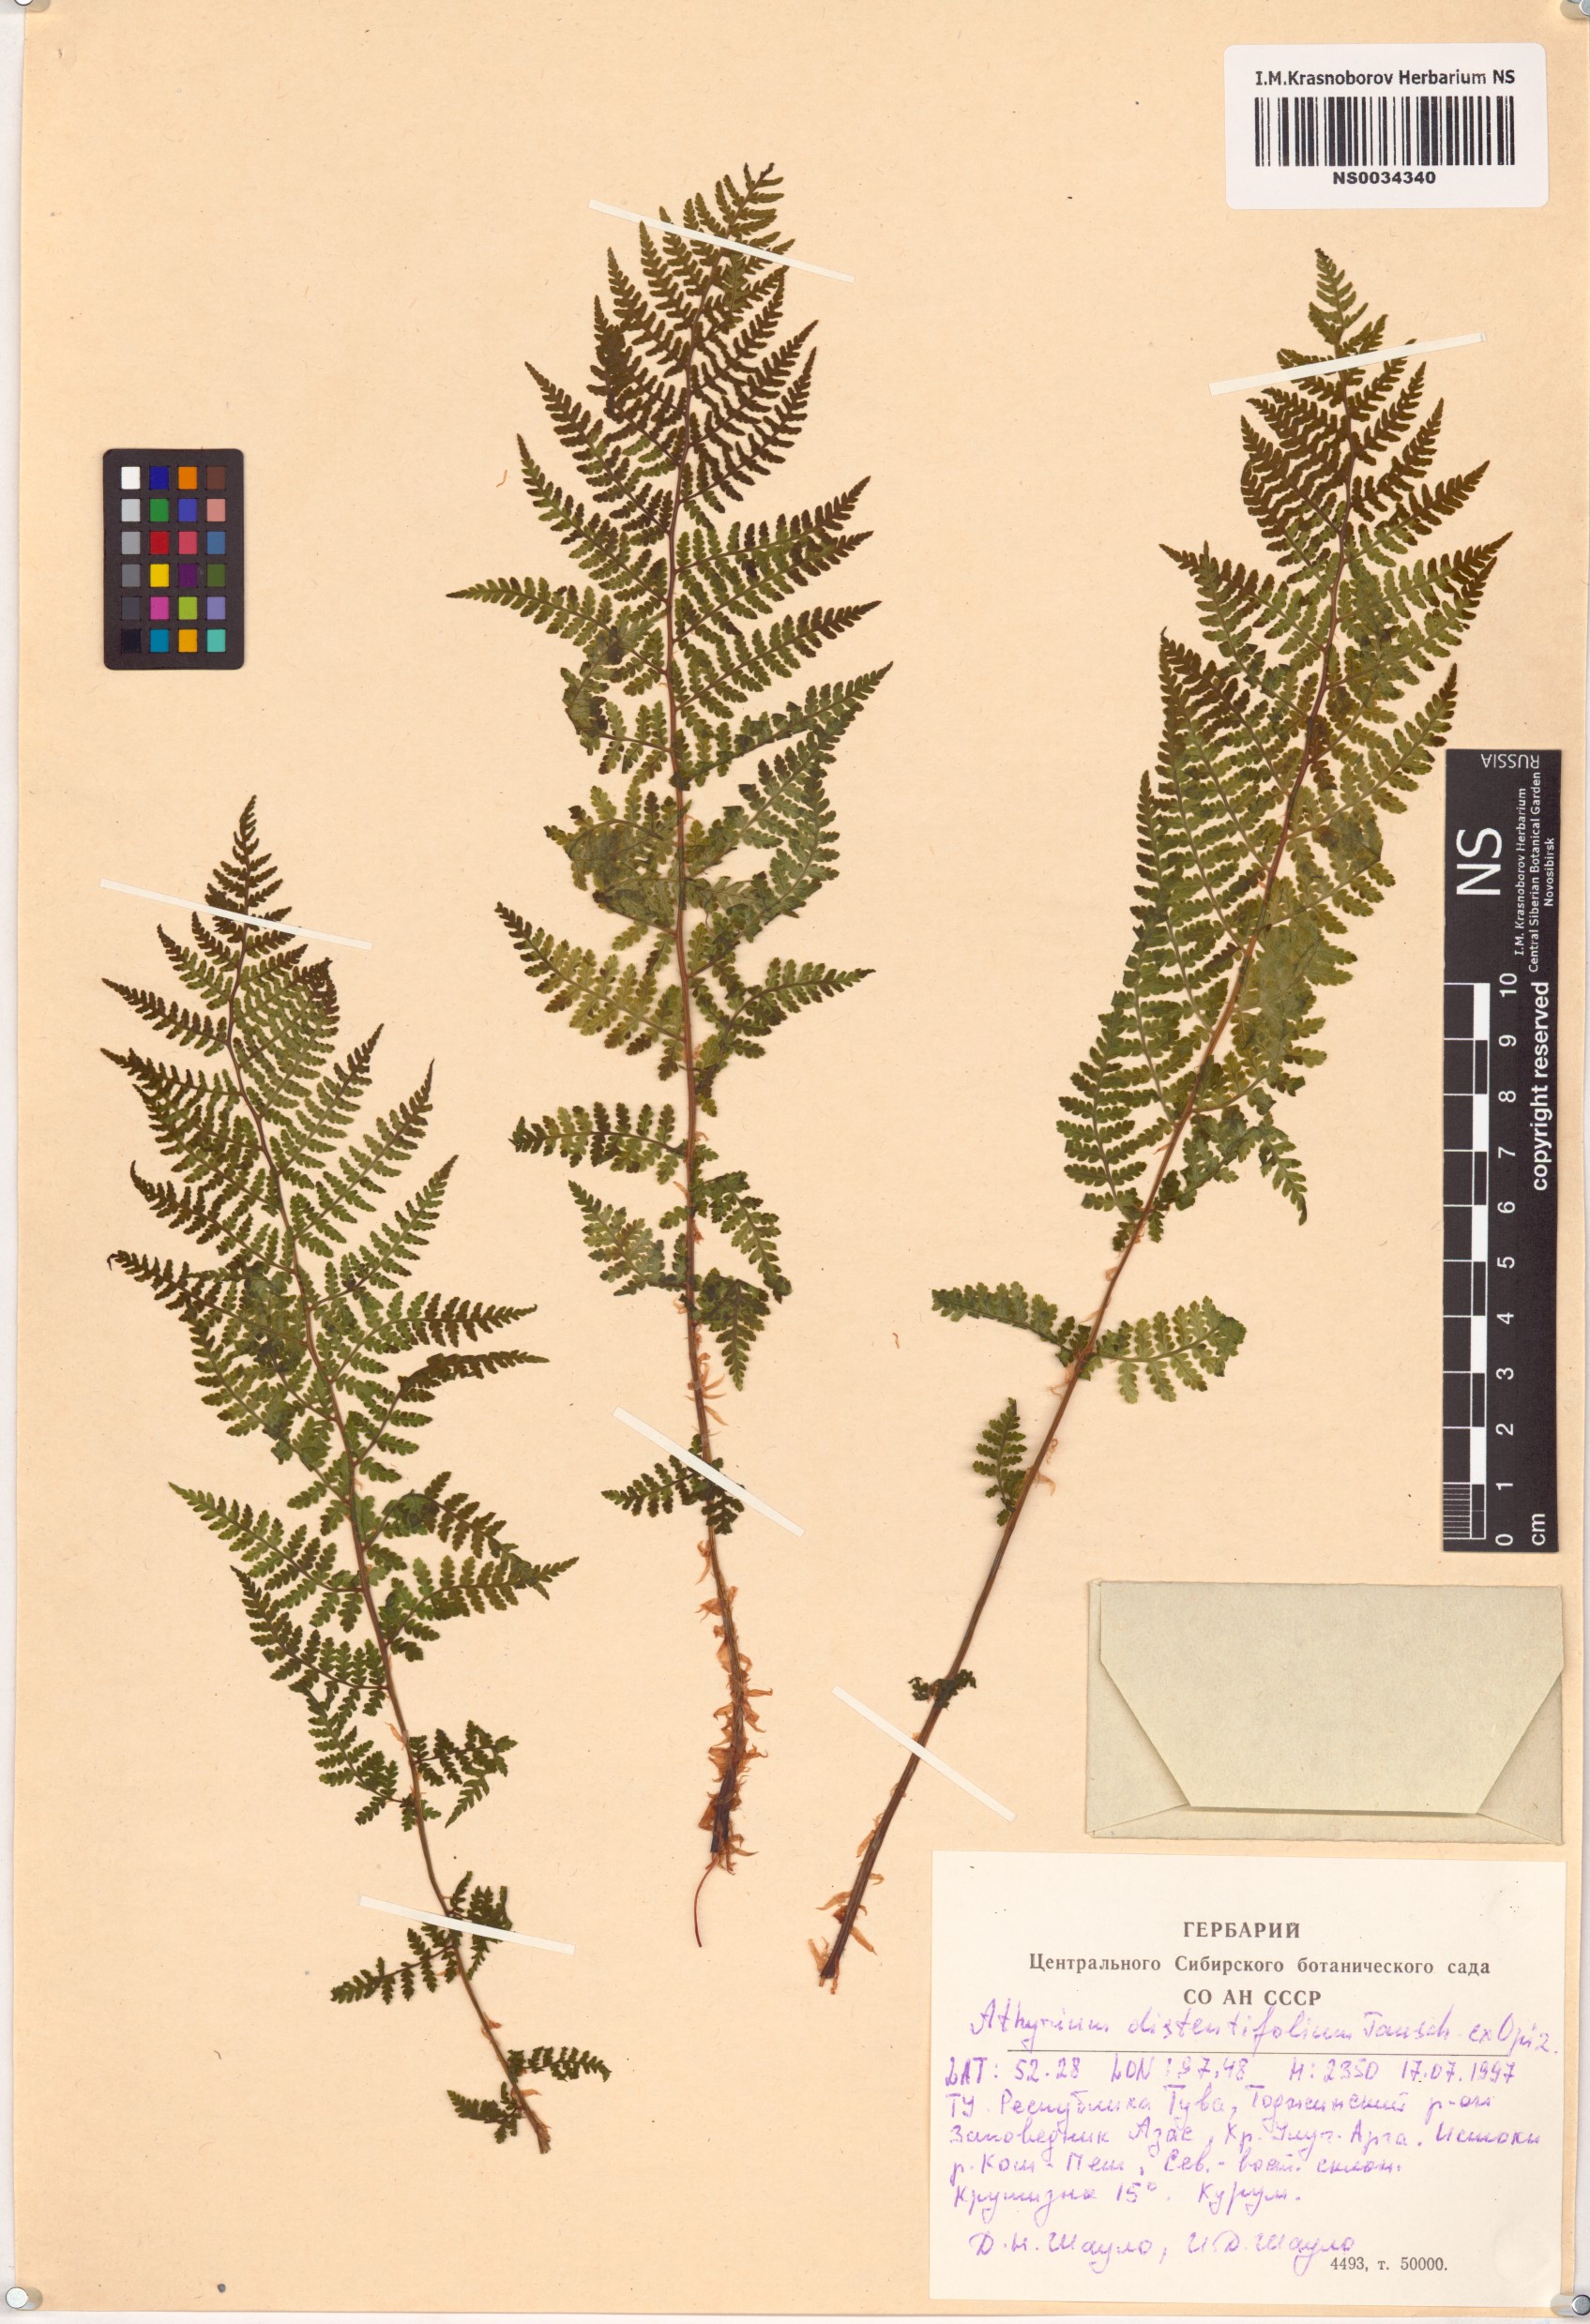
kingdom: Plantae
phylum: Tracheophyta
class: Polypodiopsida
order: Polypodiales
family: Athyriaceae
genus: Pseudathyrium
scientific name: Pseudathyrium alpestre
